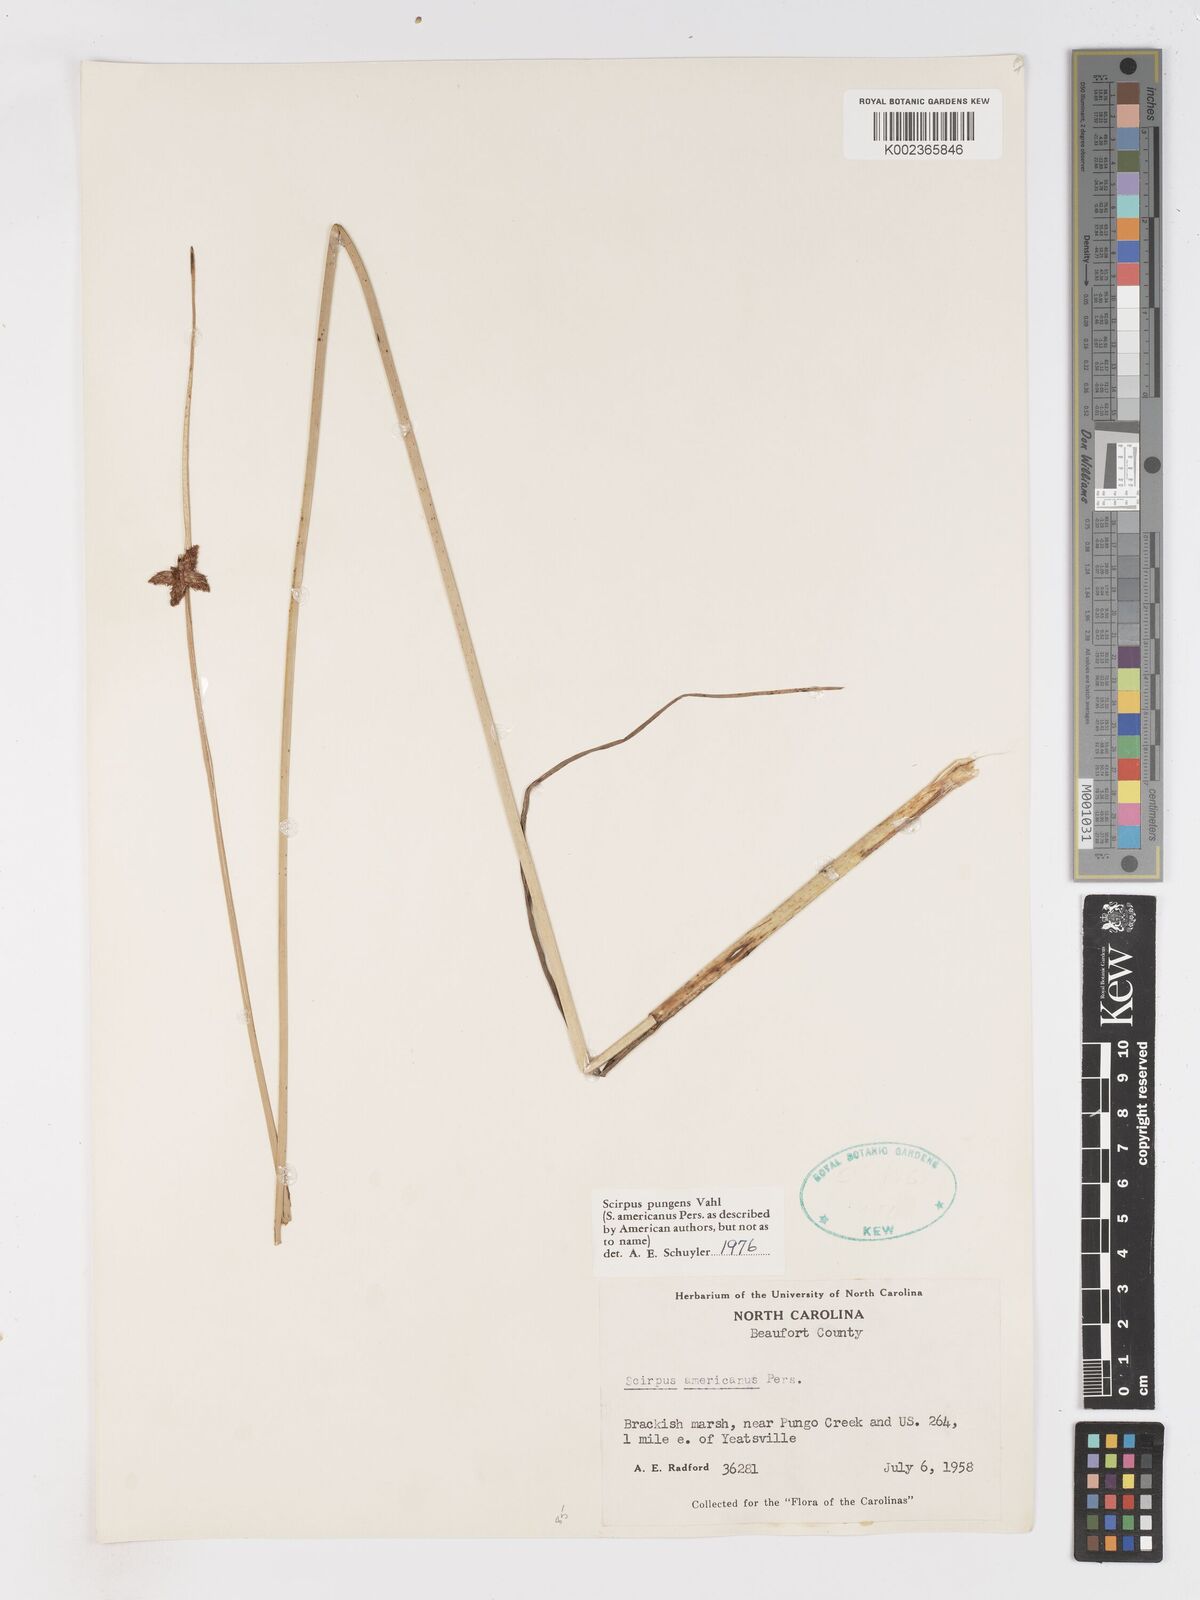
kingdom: Plantae
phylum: Tracheophyta
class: Liliopsida
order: Poales
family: Cyperaceae
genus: Schoenoplectus
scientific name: Schoenoplectus pungens
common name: Sharp club-rush
